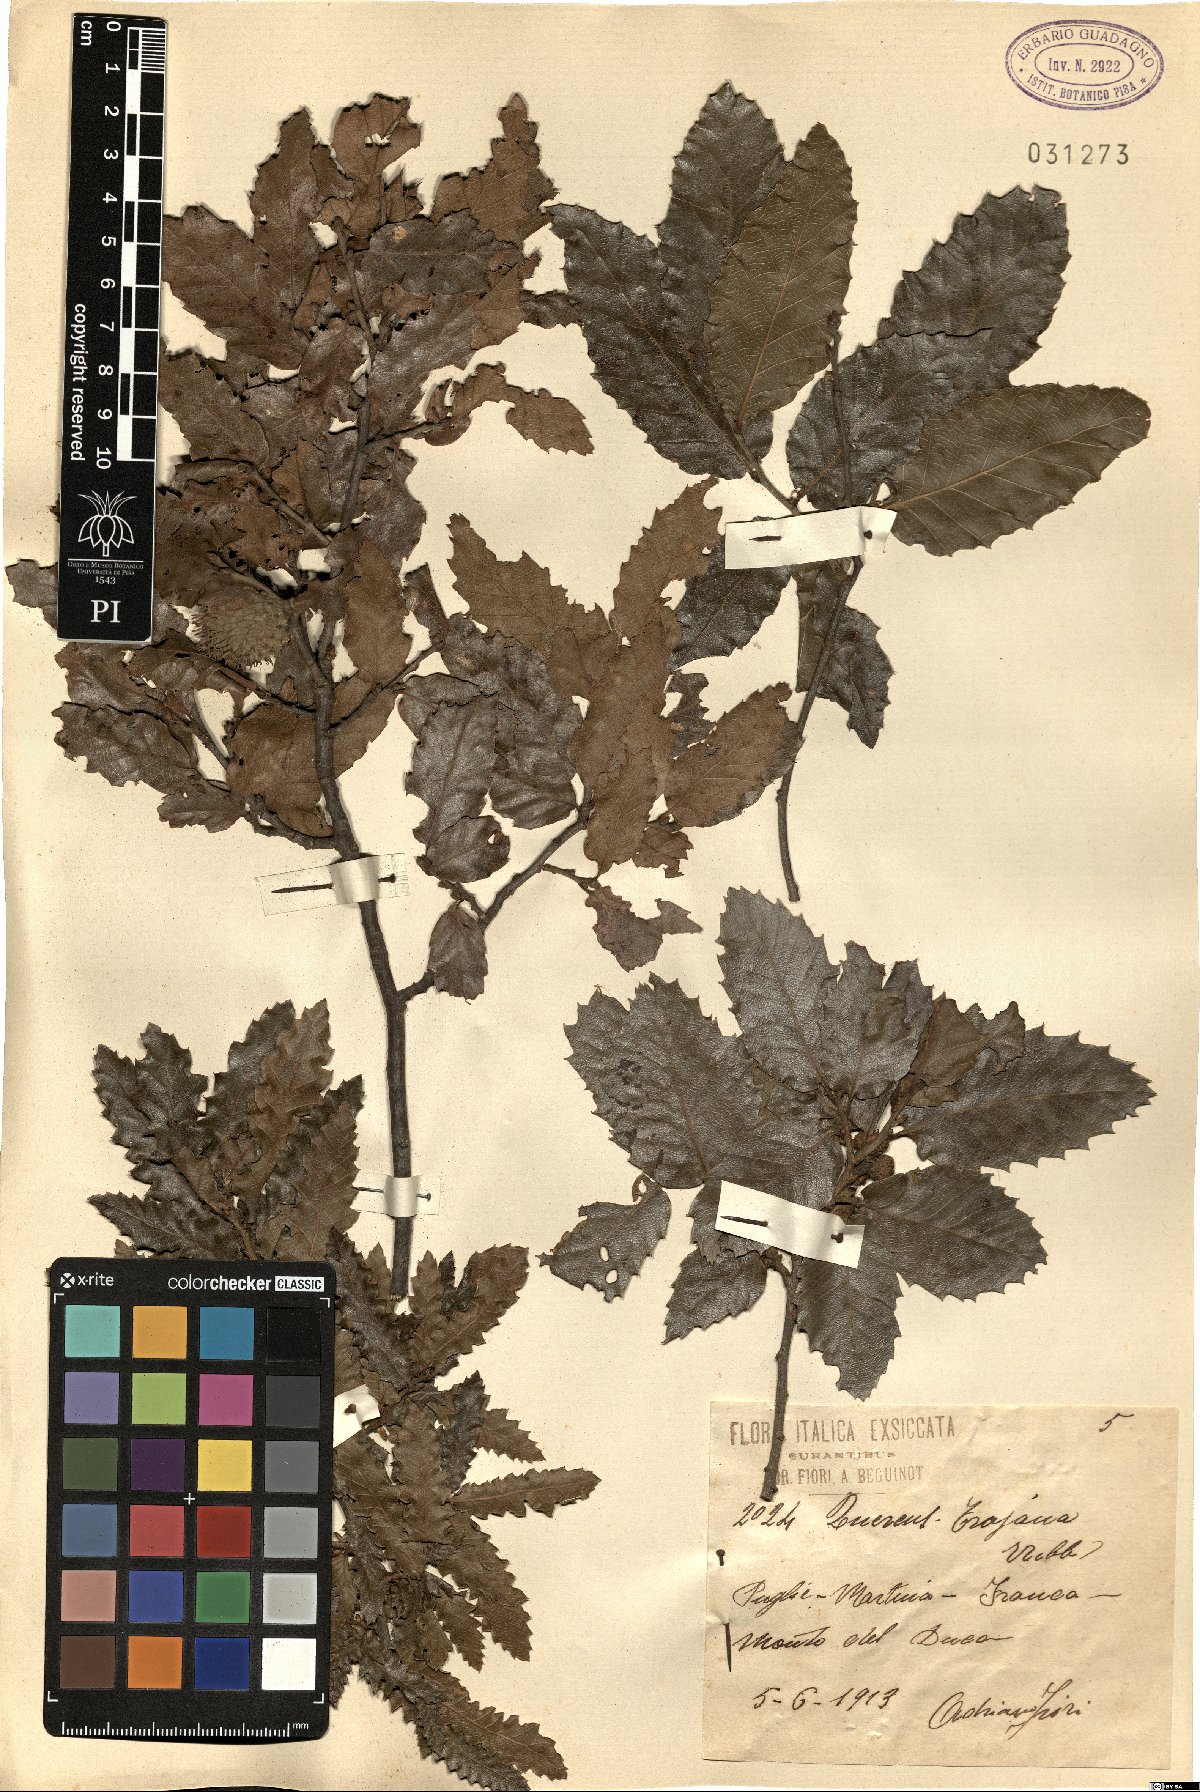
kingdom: Plantae
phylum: Tracheophyta
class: Magnoliopsida
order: Fagales
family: Fagaceae
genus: Quercus
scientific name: Quercus trojana
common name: Macedonian oak
